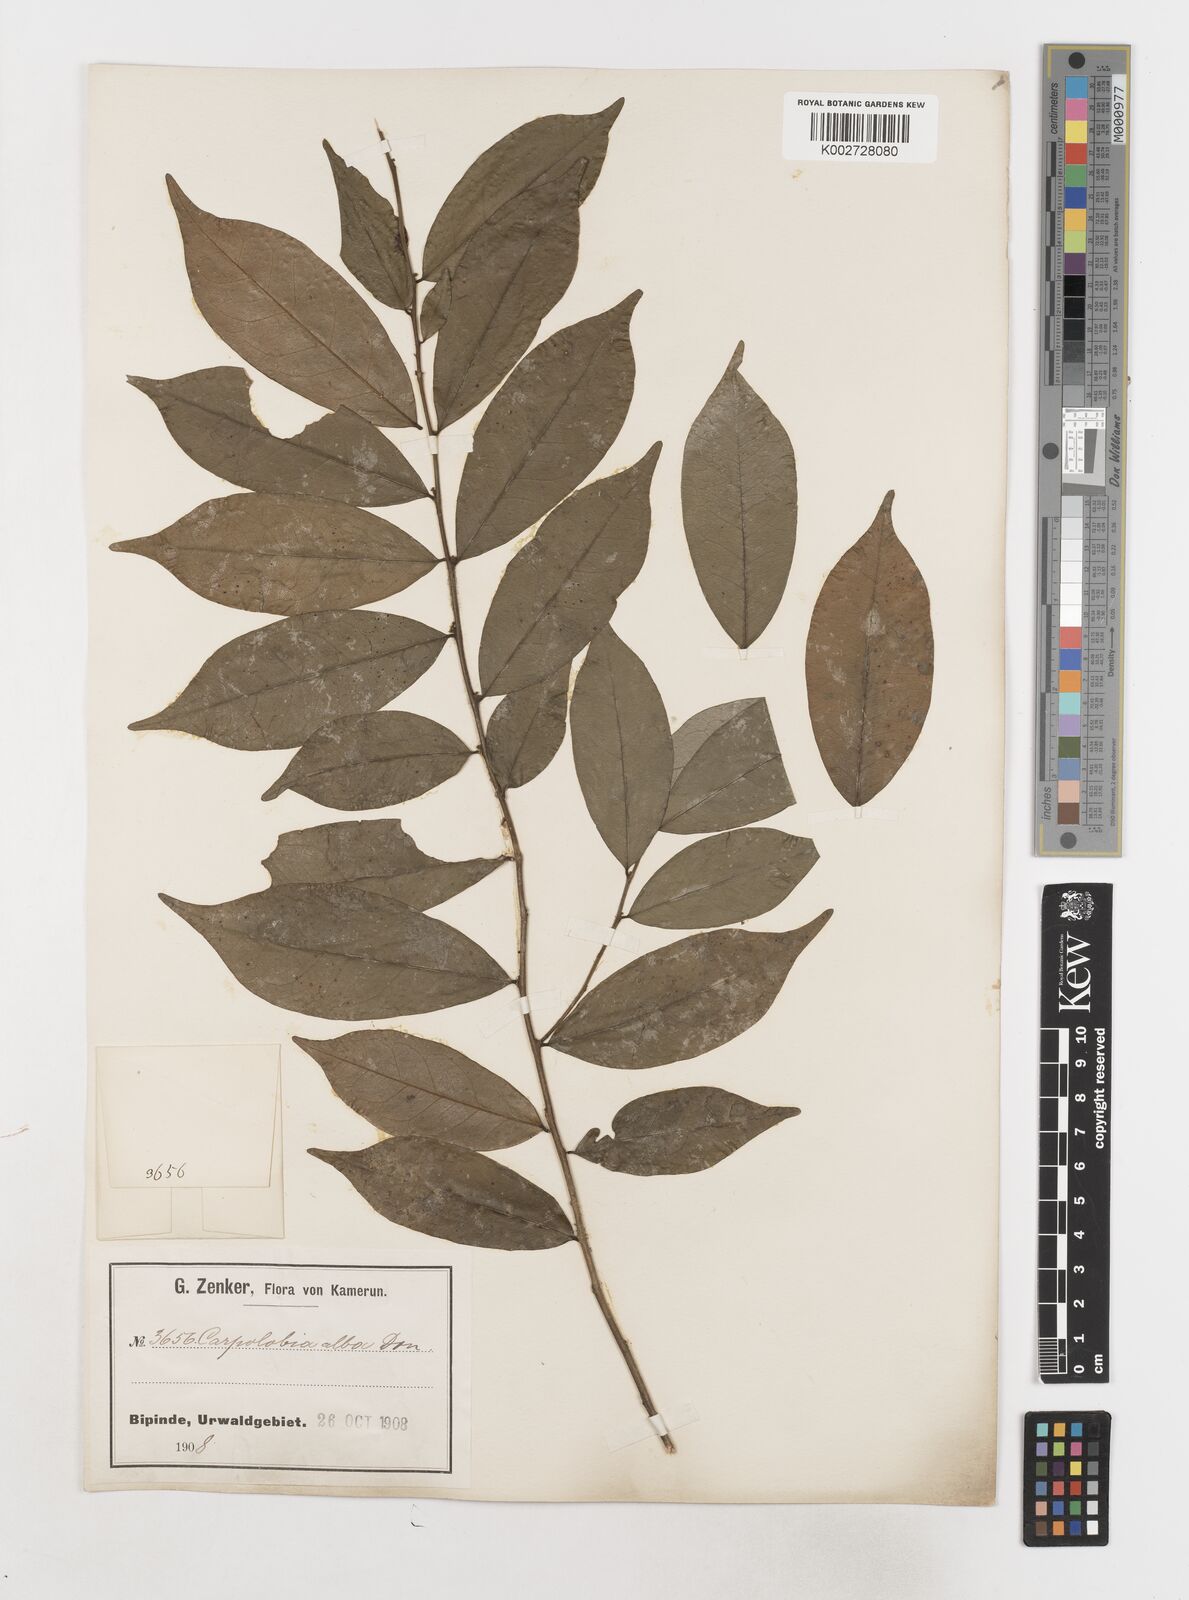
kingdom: Plantae
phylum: Tracheophyta
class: Magnoliopsida
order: Fabales
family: Polygalaceae
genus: Carpolobia
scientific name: Carpolobia alba
